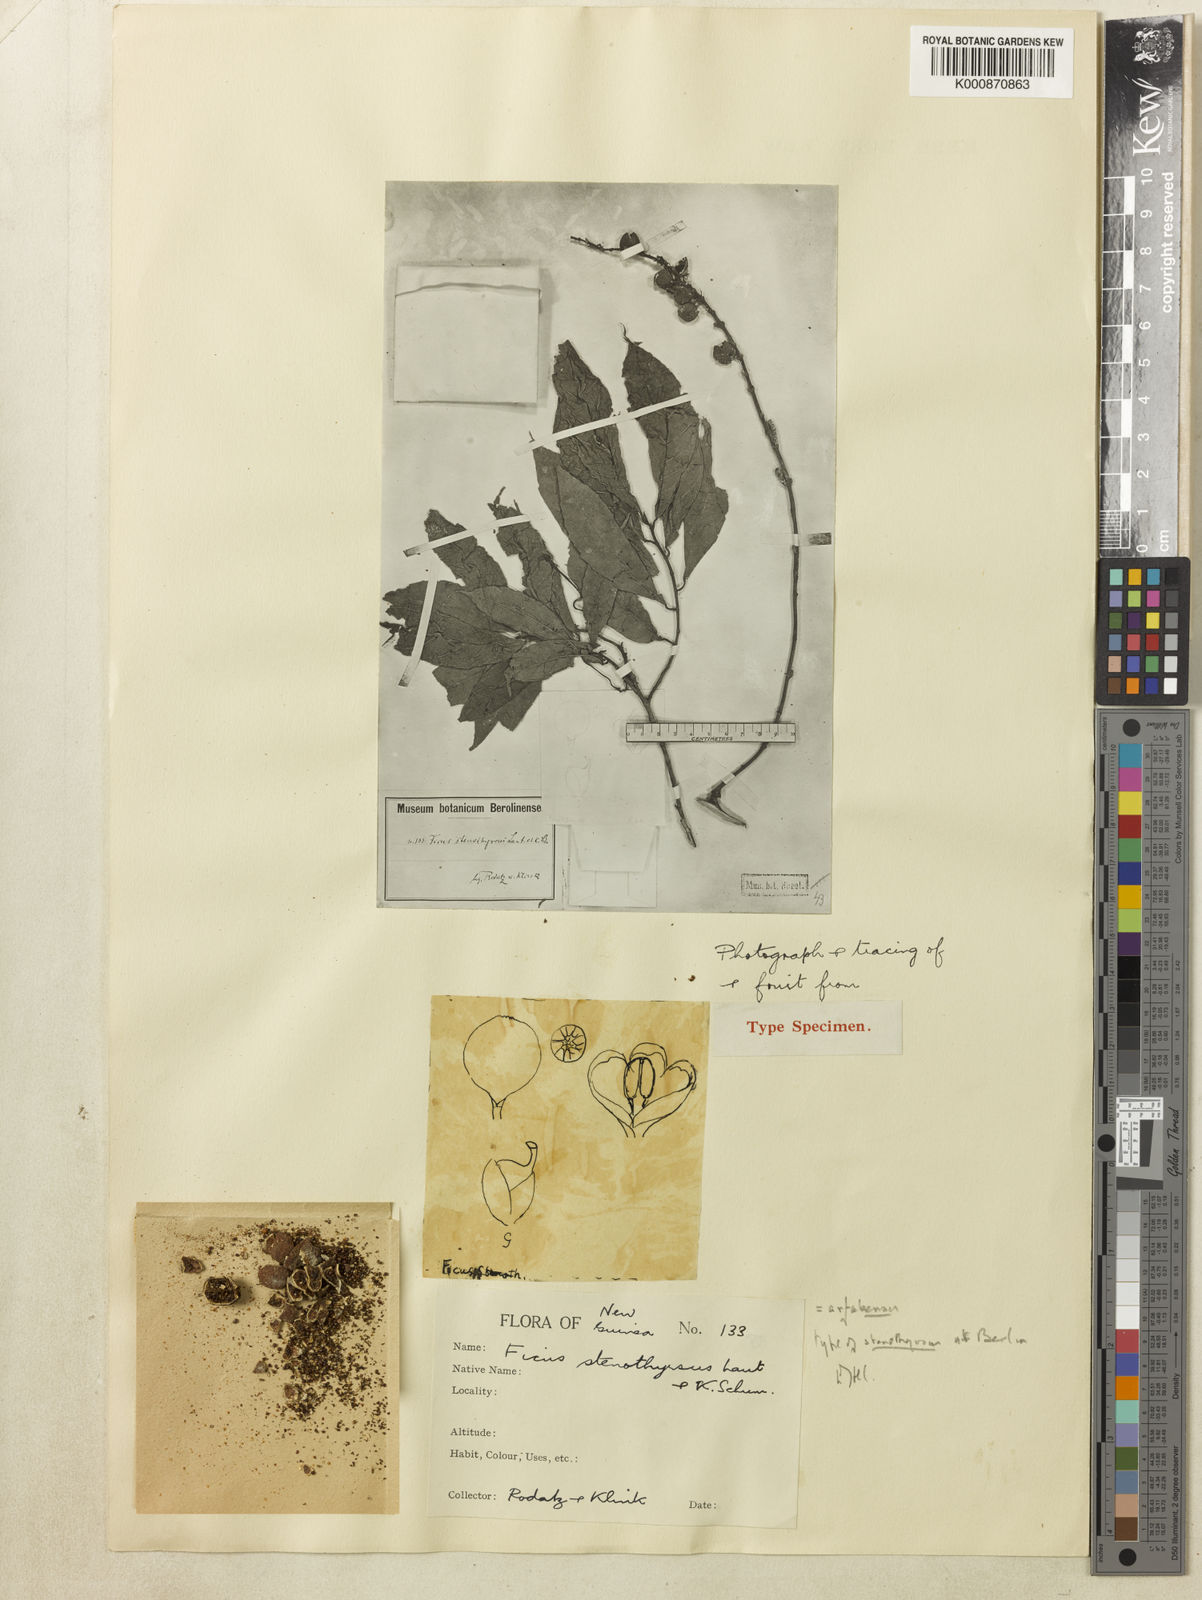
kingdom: Plantae
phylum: Tracheophyta
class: Magnoliopsida
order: Rosales
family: Moraceae
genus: Ficus
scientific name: Ficus ribes
